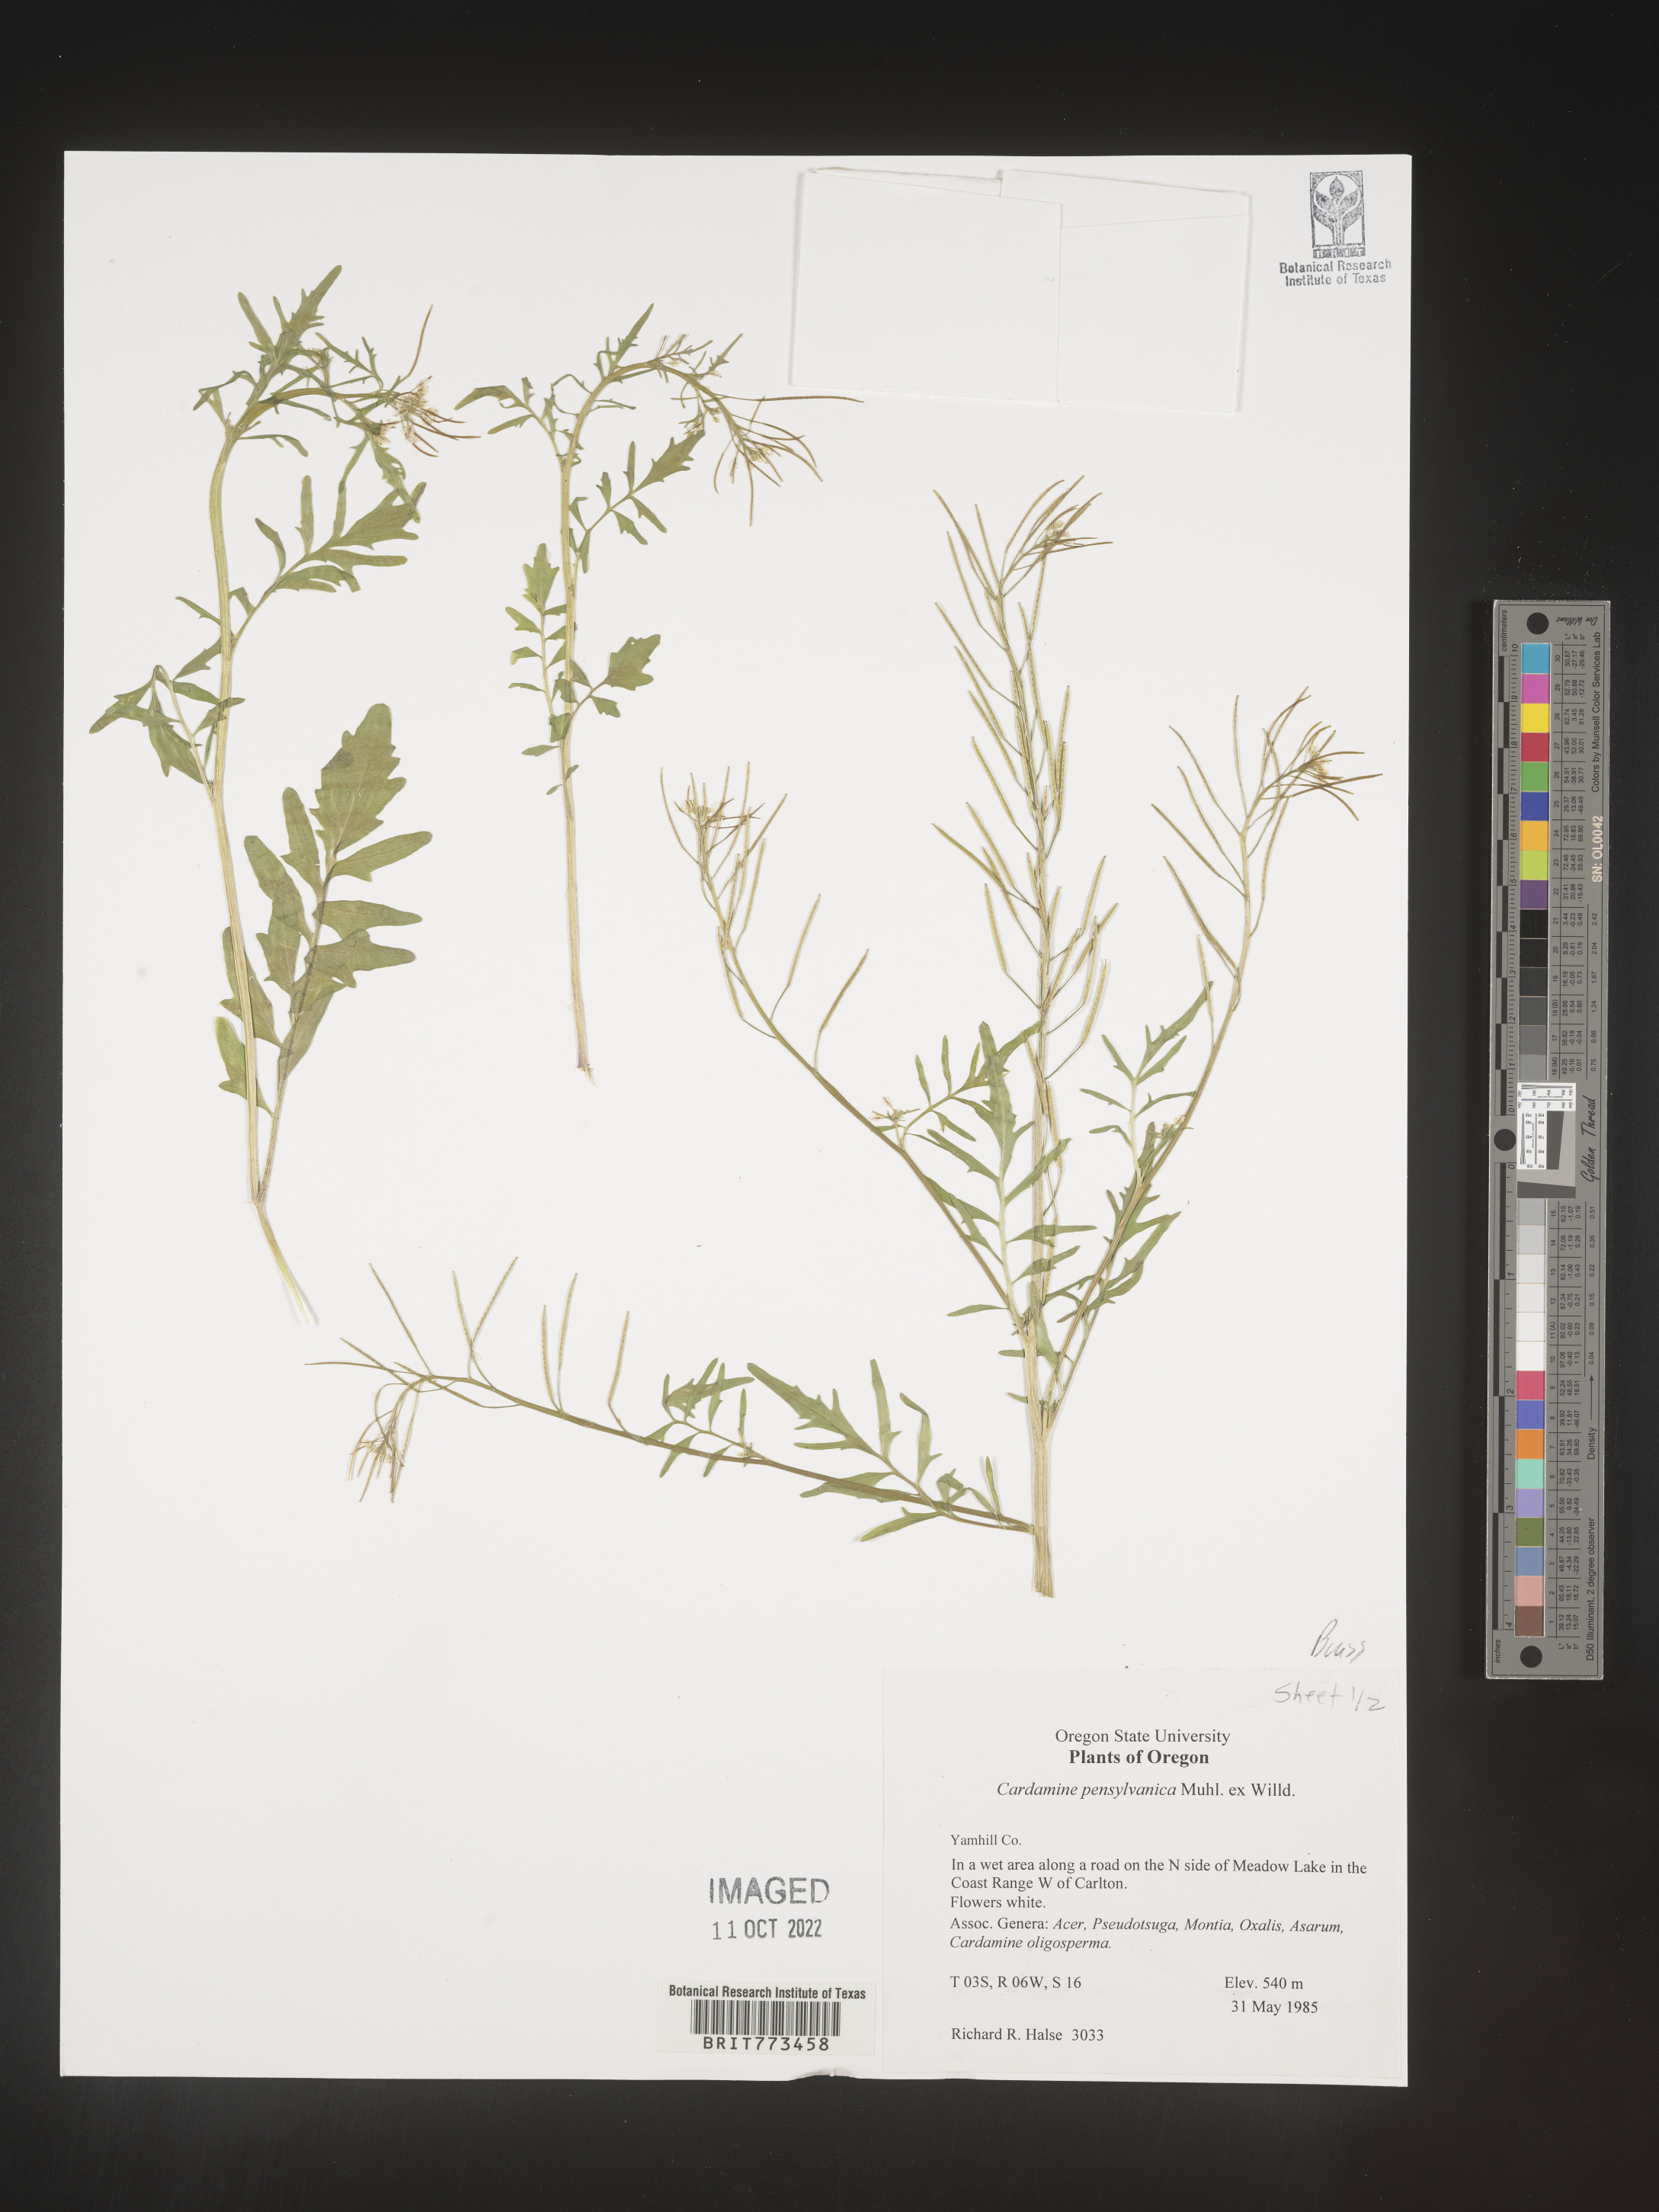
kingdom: Plantae
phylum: Tracheophyta
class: Magnoliopsida
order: Brassicales
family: Brassicaceae
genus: Cardamine
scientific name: Cardamine pensylvanica
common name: Pennsylvania bittercress
